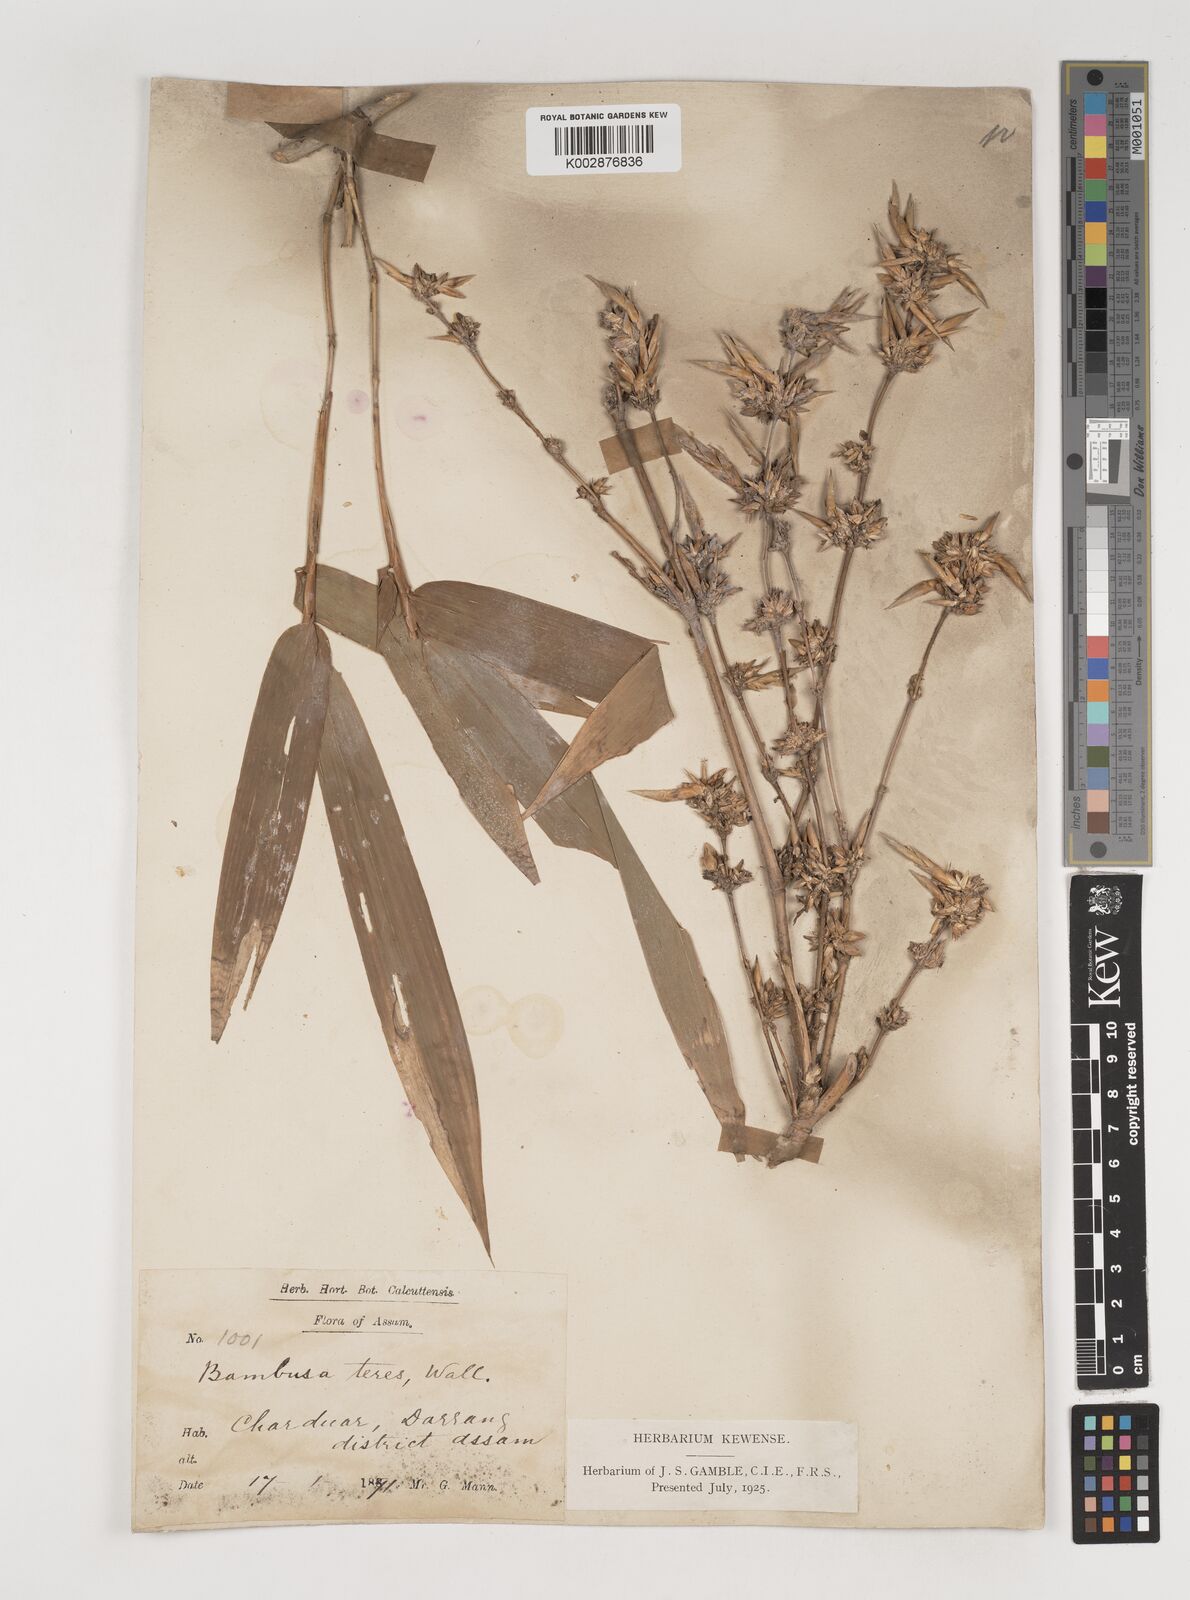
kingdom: Plantae
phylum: Tracheophyta
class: Liliopsida
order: Poales
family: Poaceae
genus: Bambusa
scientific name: Bambusa teres
